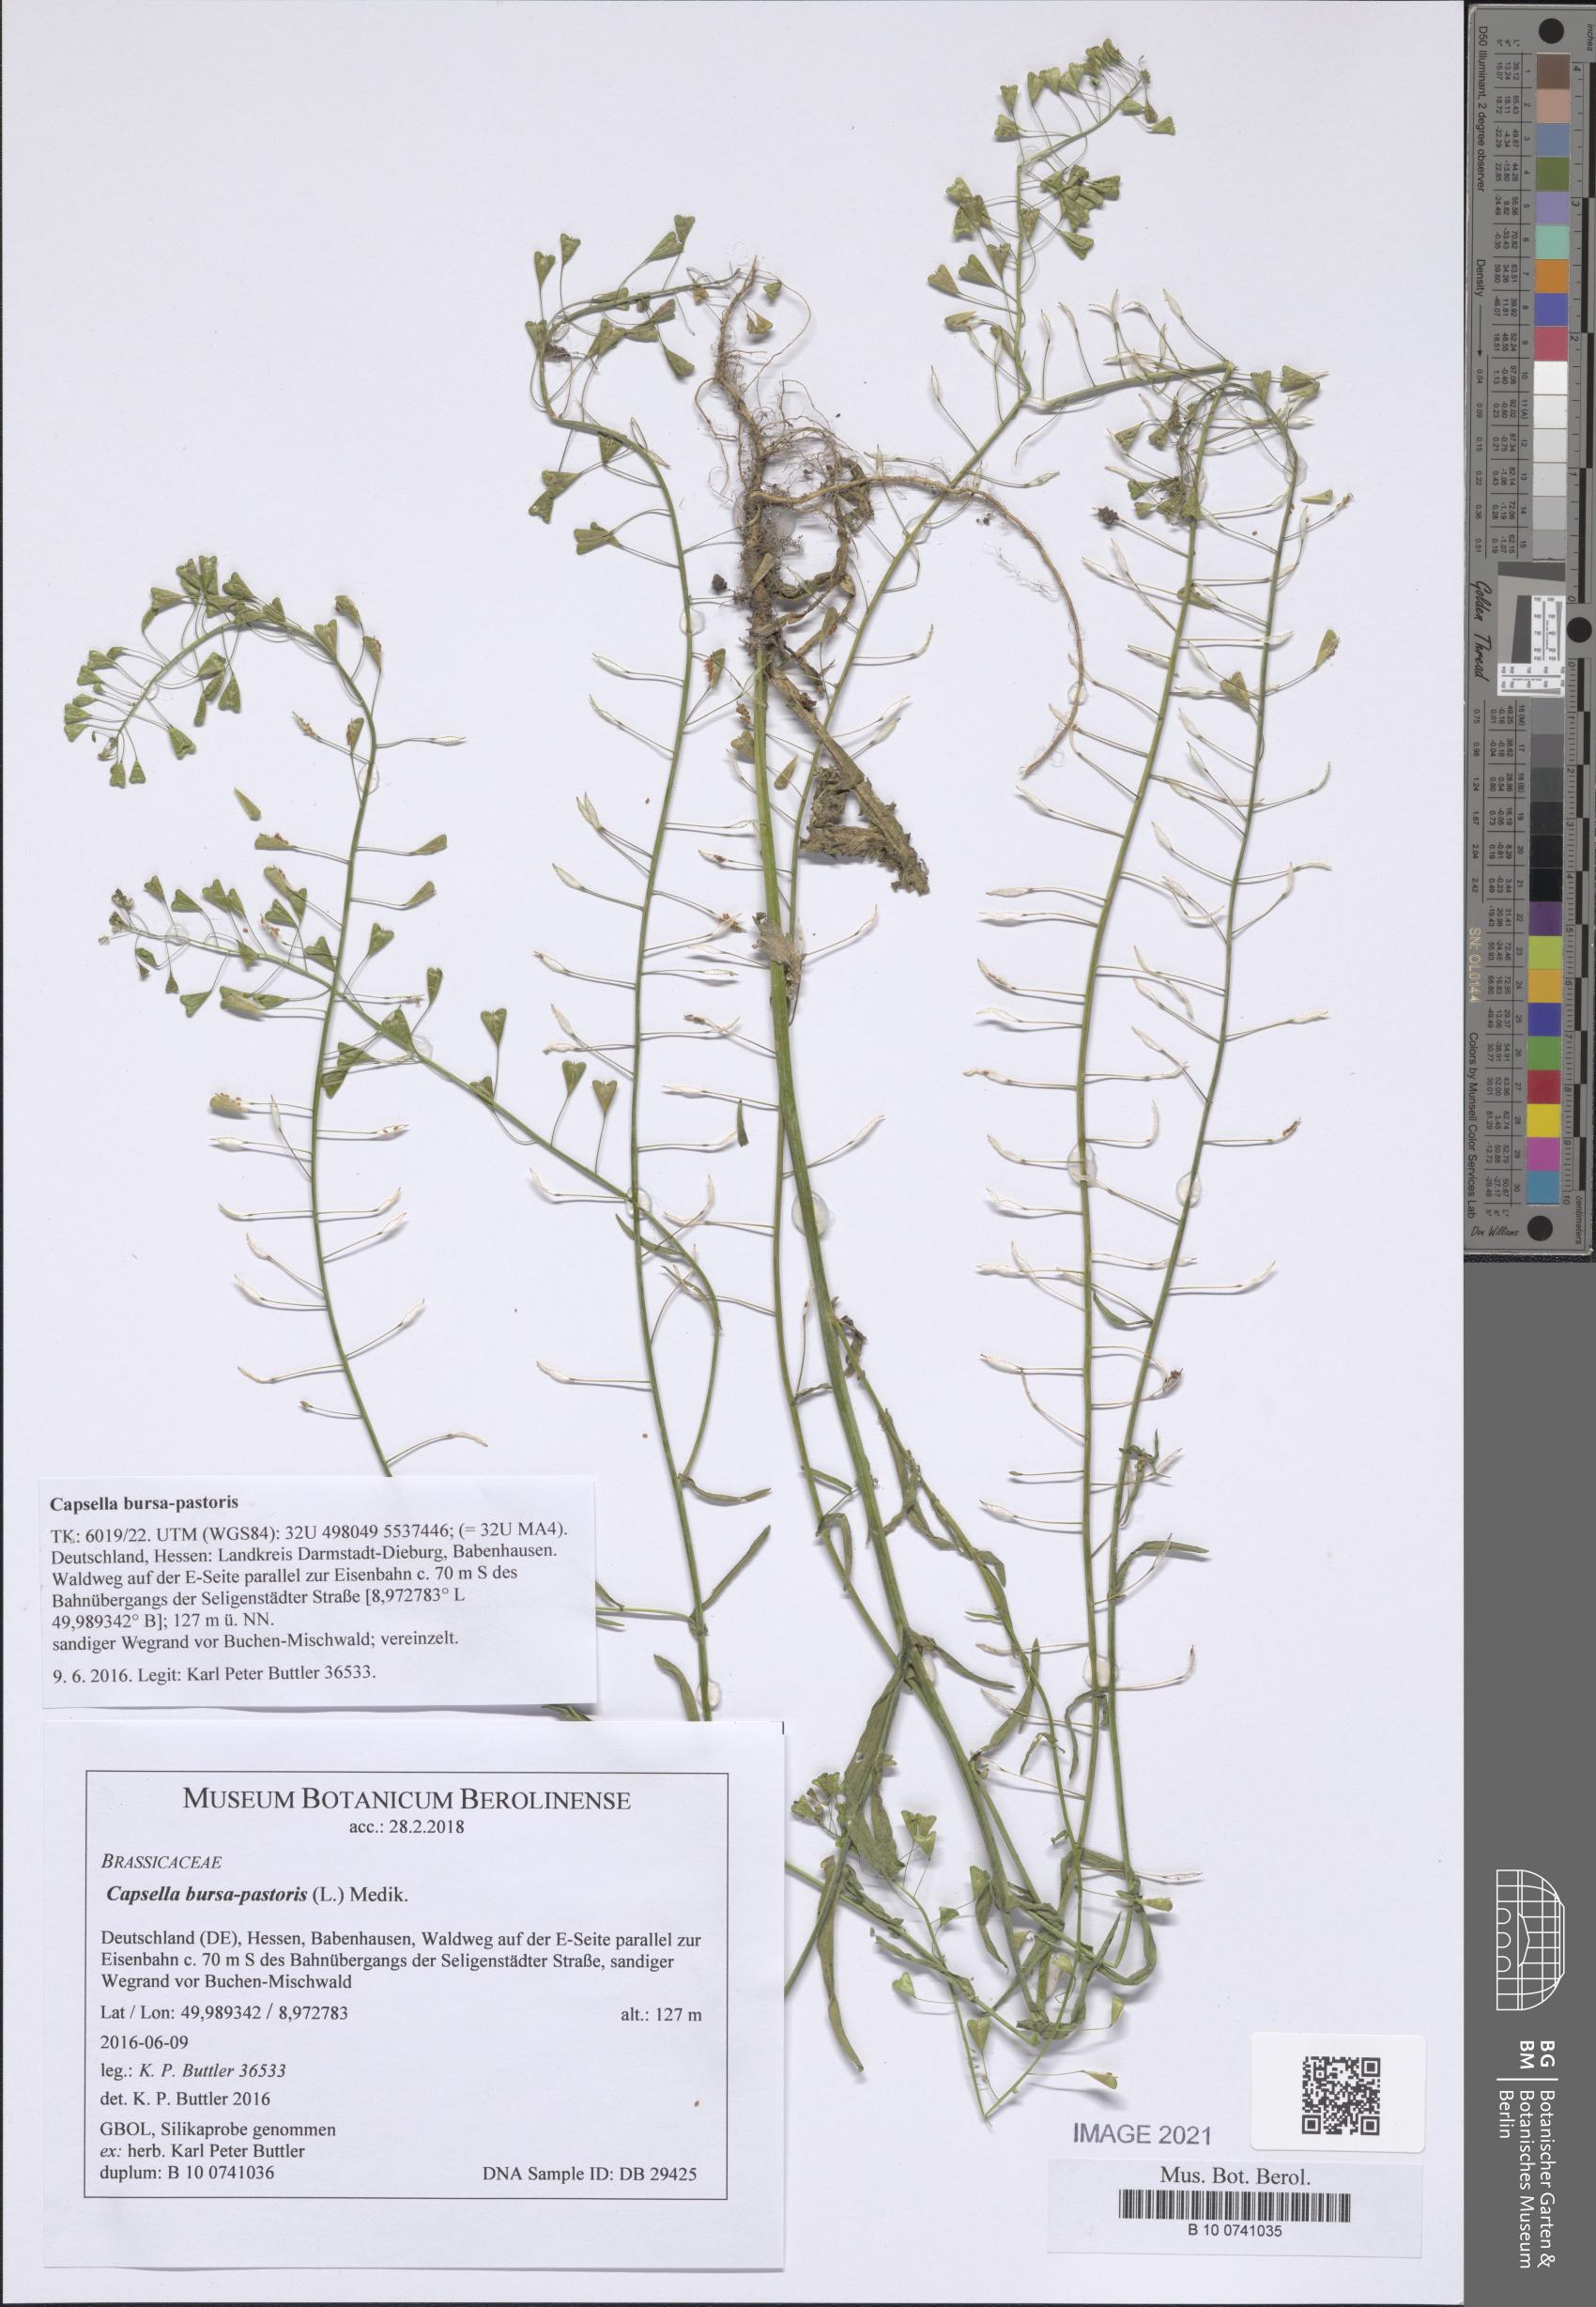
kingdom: Plantae
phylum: Tracheophyta
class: Magnoliopsida
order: Brassicales
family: Brassicaceae
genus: Capsella
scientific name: Capsella bursa-pastoris
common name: Shepherd's purse
